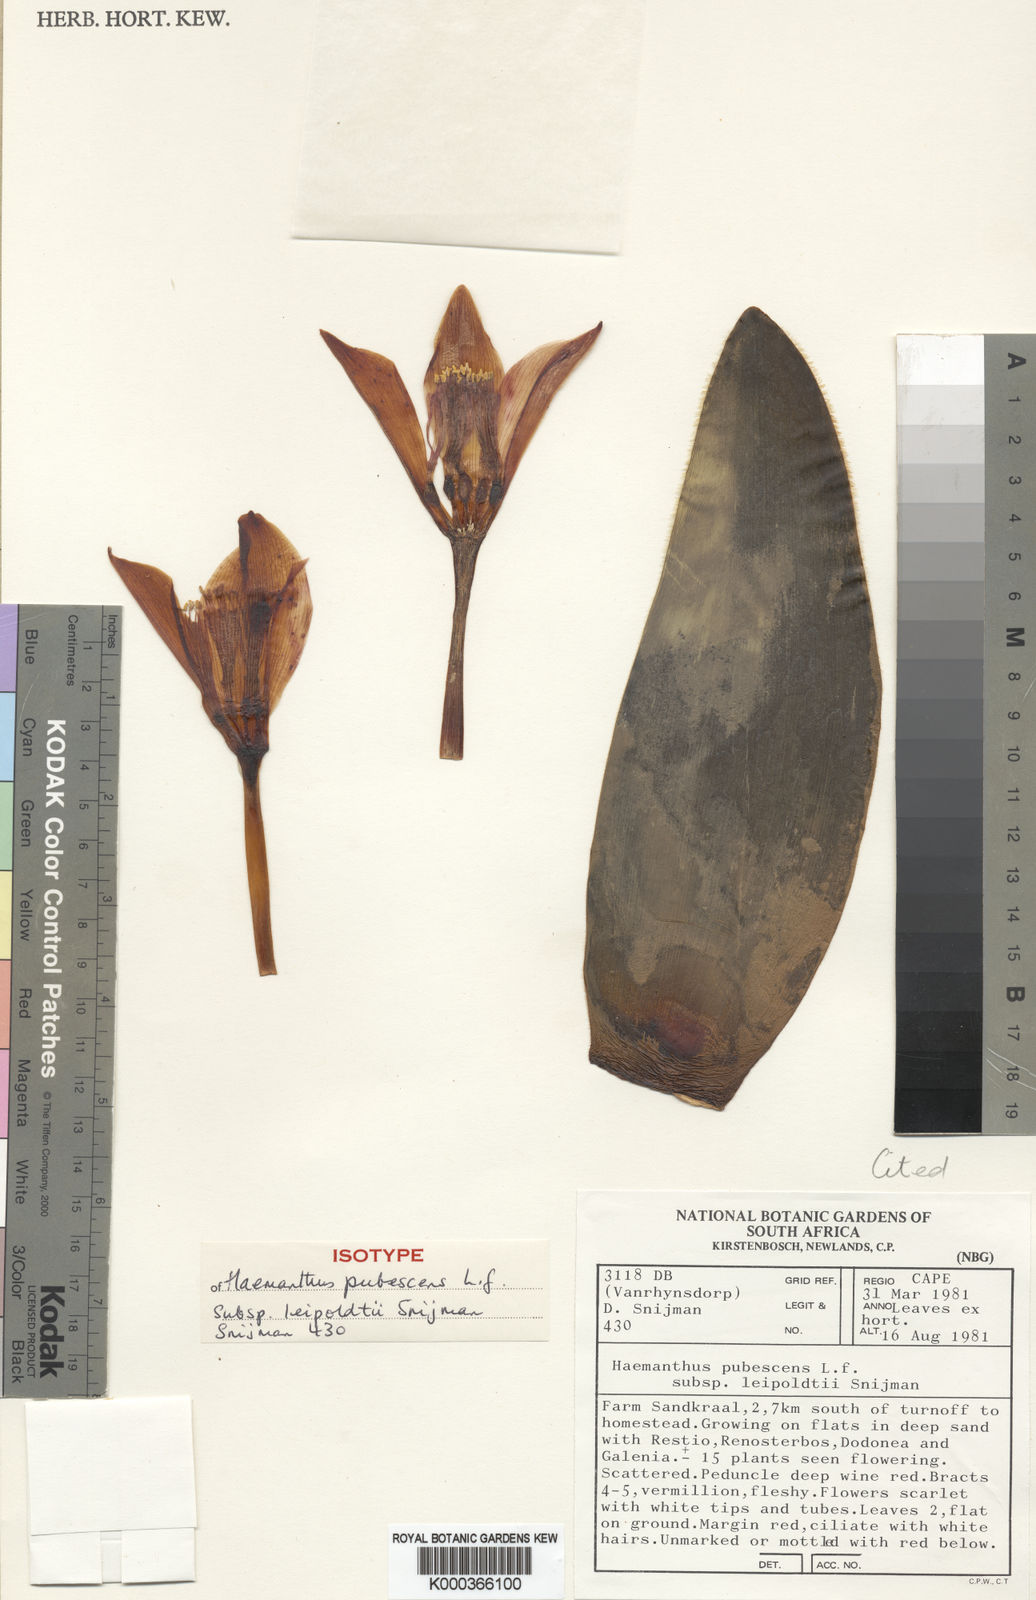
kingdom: Plantae
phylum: Tracheophyta
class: Liliopsida
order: Asparagales
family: Amaryllidaceae
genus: Haemanthus
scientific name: Haemanthus pubescens
